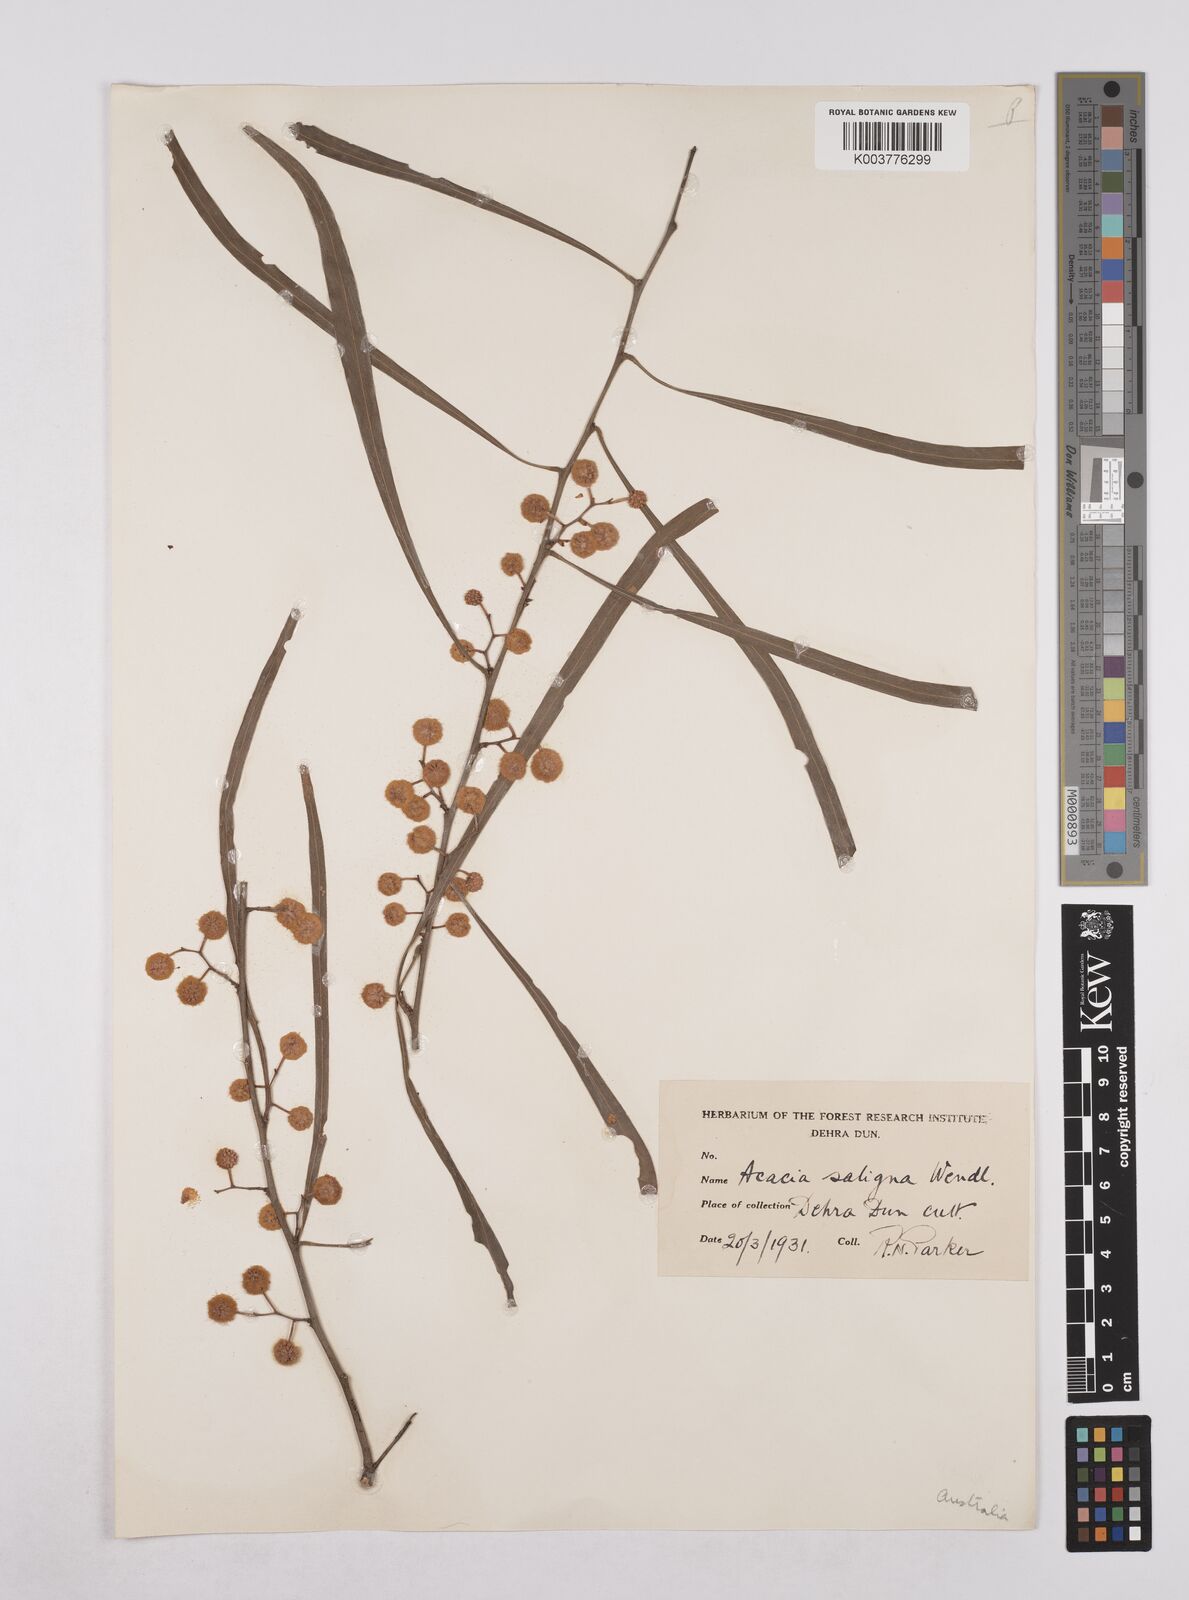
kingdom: Plantae
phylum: Tracheophyta
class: Magnoliopsida
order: Fabales
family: Fabaceae
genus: Acacia
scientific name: Acacia saligna
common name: Orange wattle
